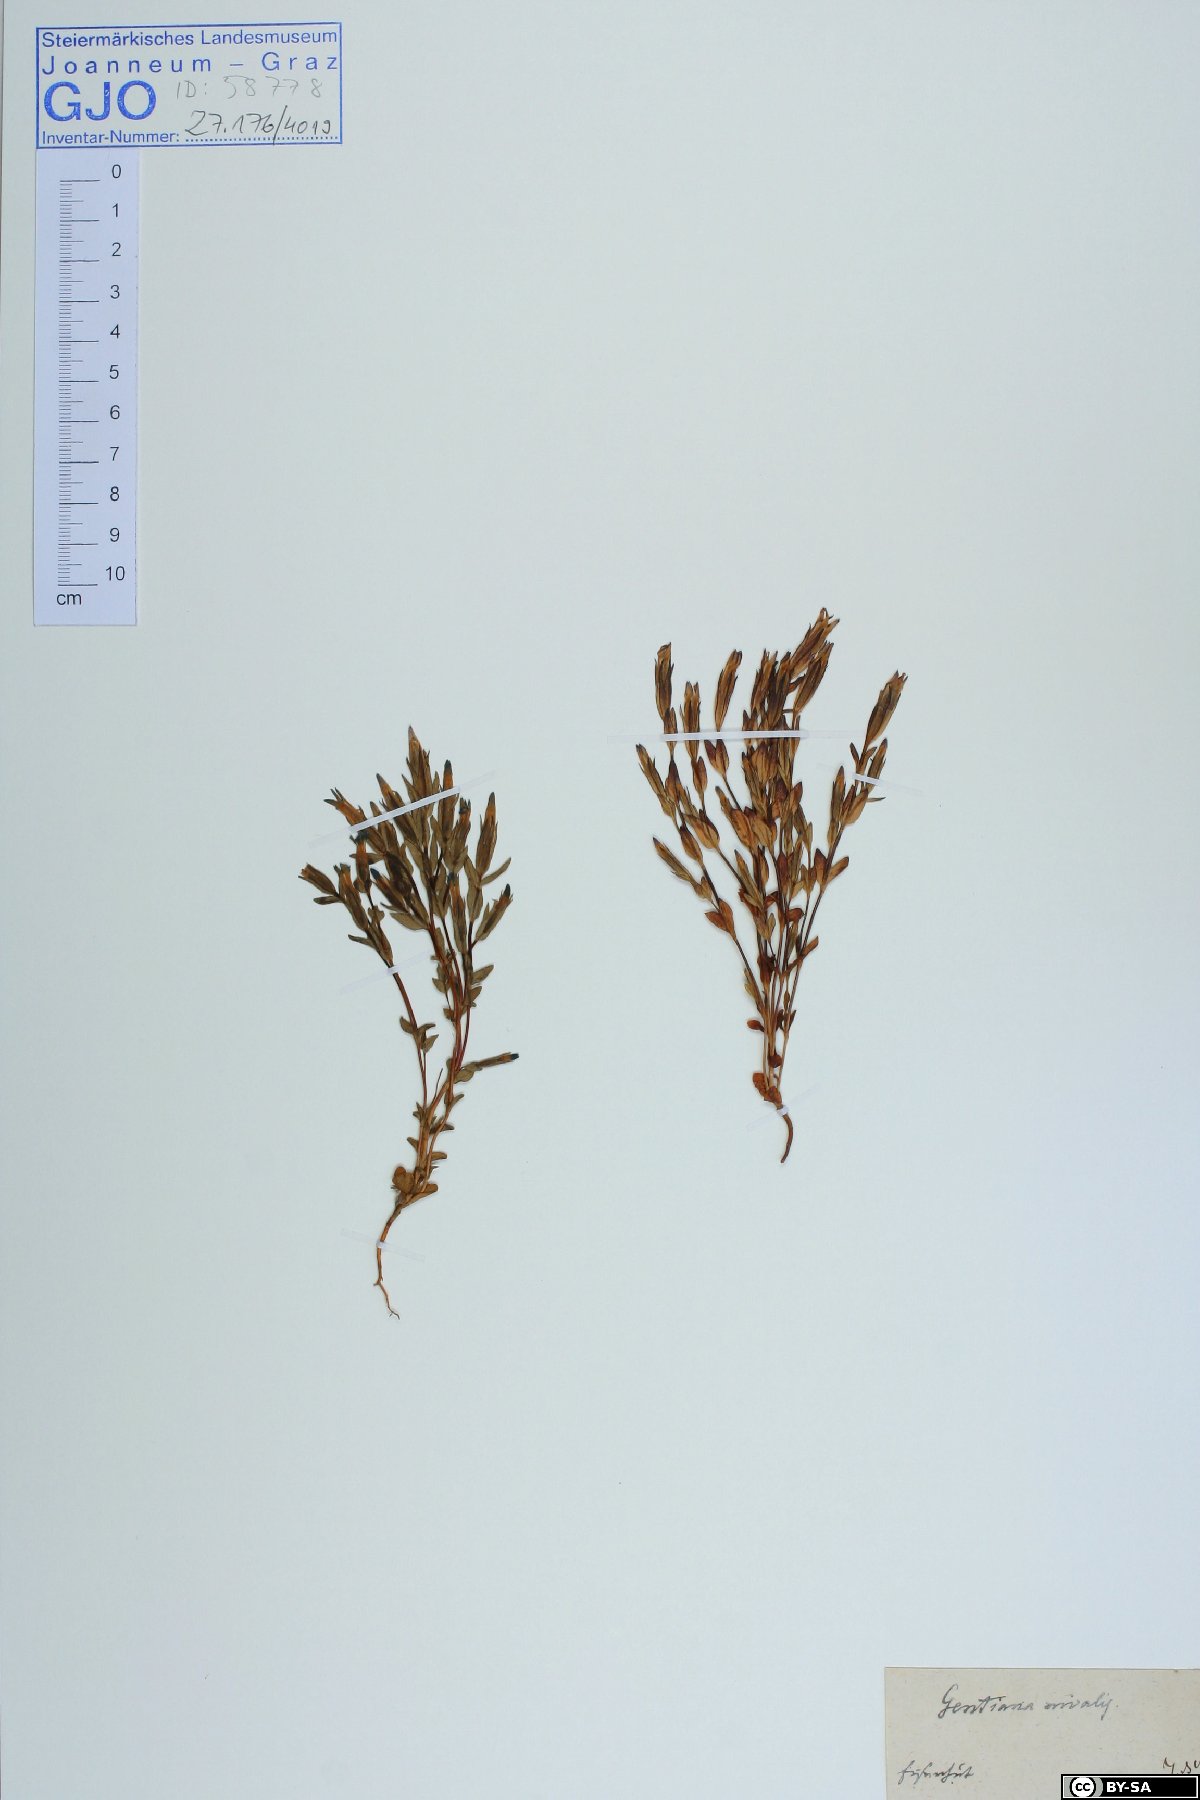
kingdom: Plantae
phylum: Tracheophyta
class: Magnoliopsida
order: Gentianales
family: Gentianaceae
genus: Gentiana
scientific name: Gentiana nivalis
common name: Alpine gentian
